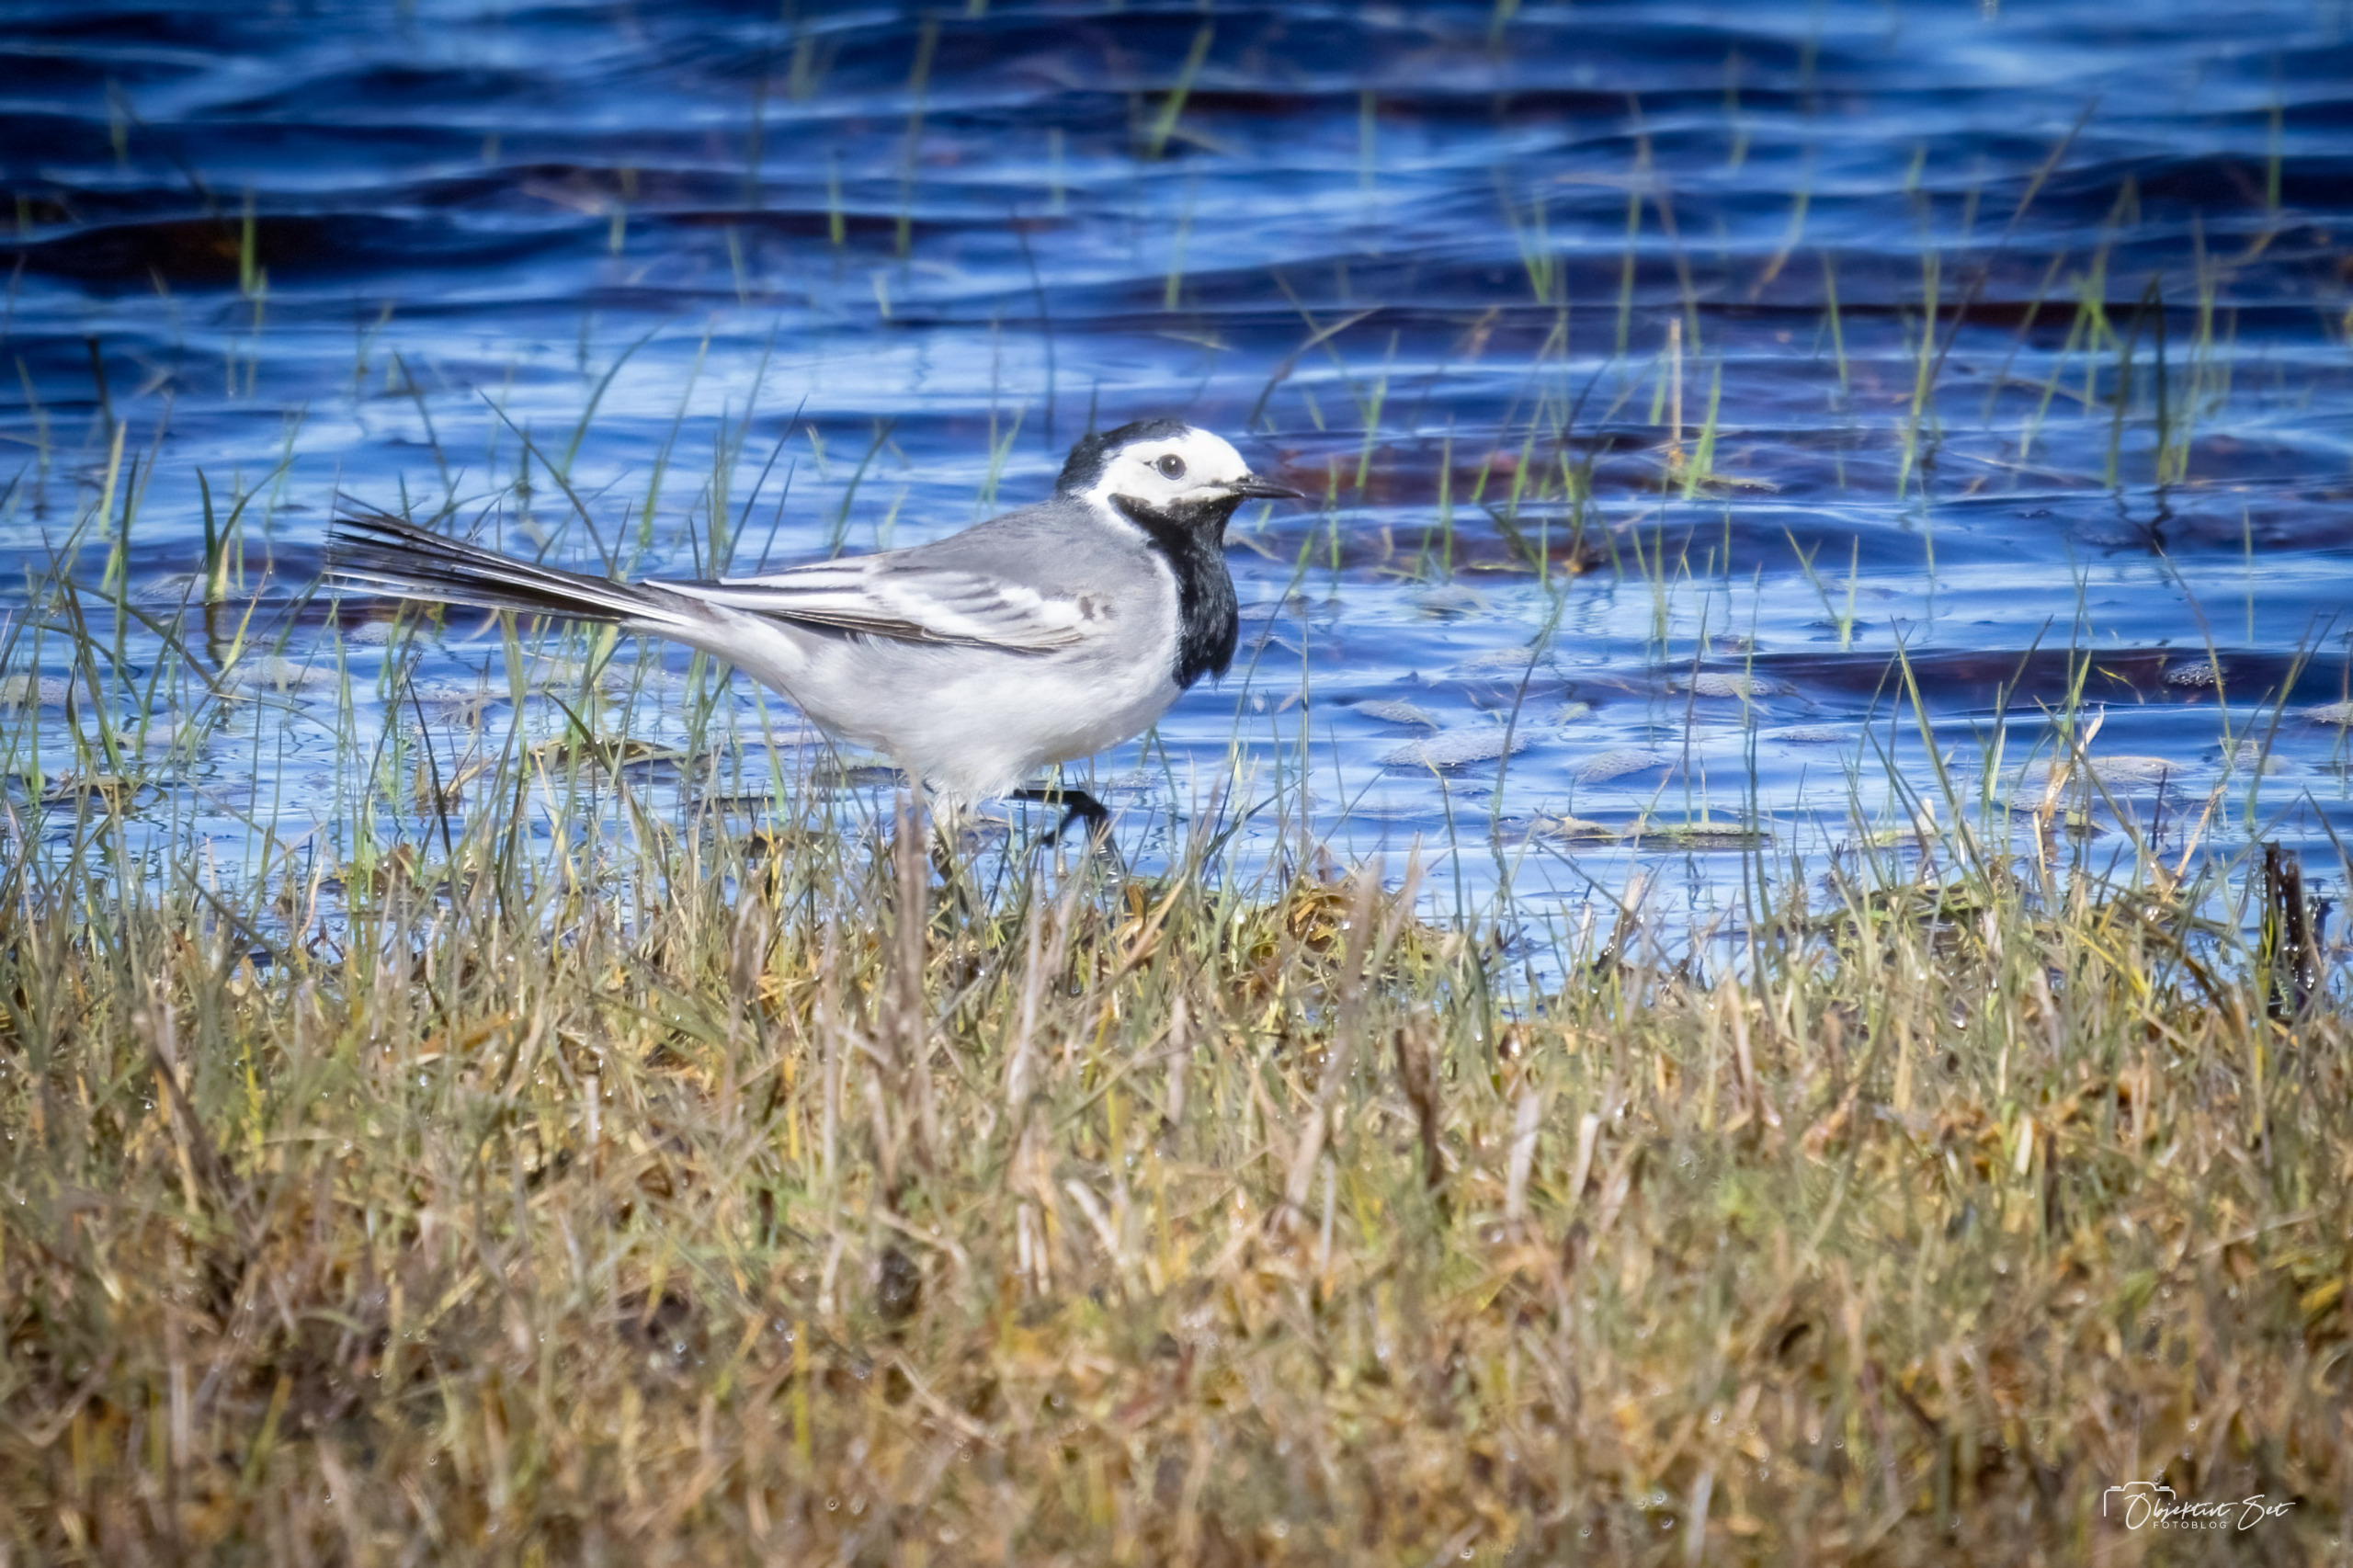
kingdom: Animalia
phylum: Chordata
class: Aves
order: Passeriformes
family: Motacillidae
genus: Motacilla
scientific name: Motacilla alba
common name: Hvid vipstjert
